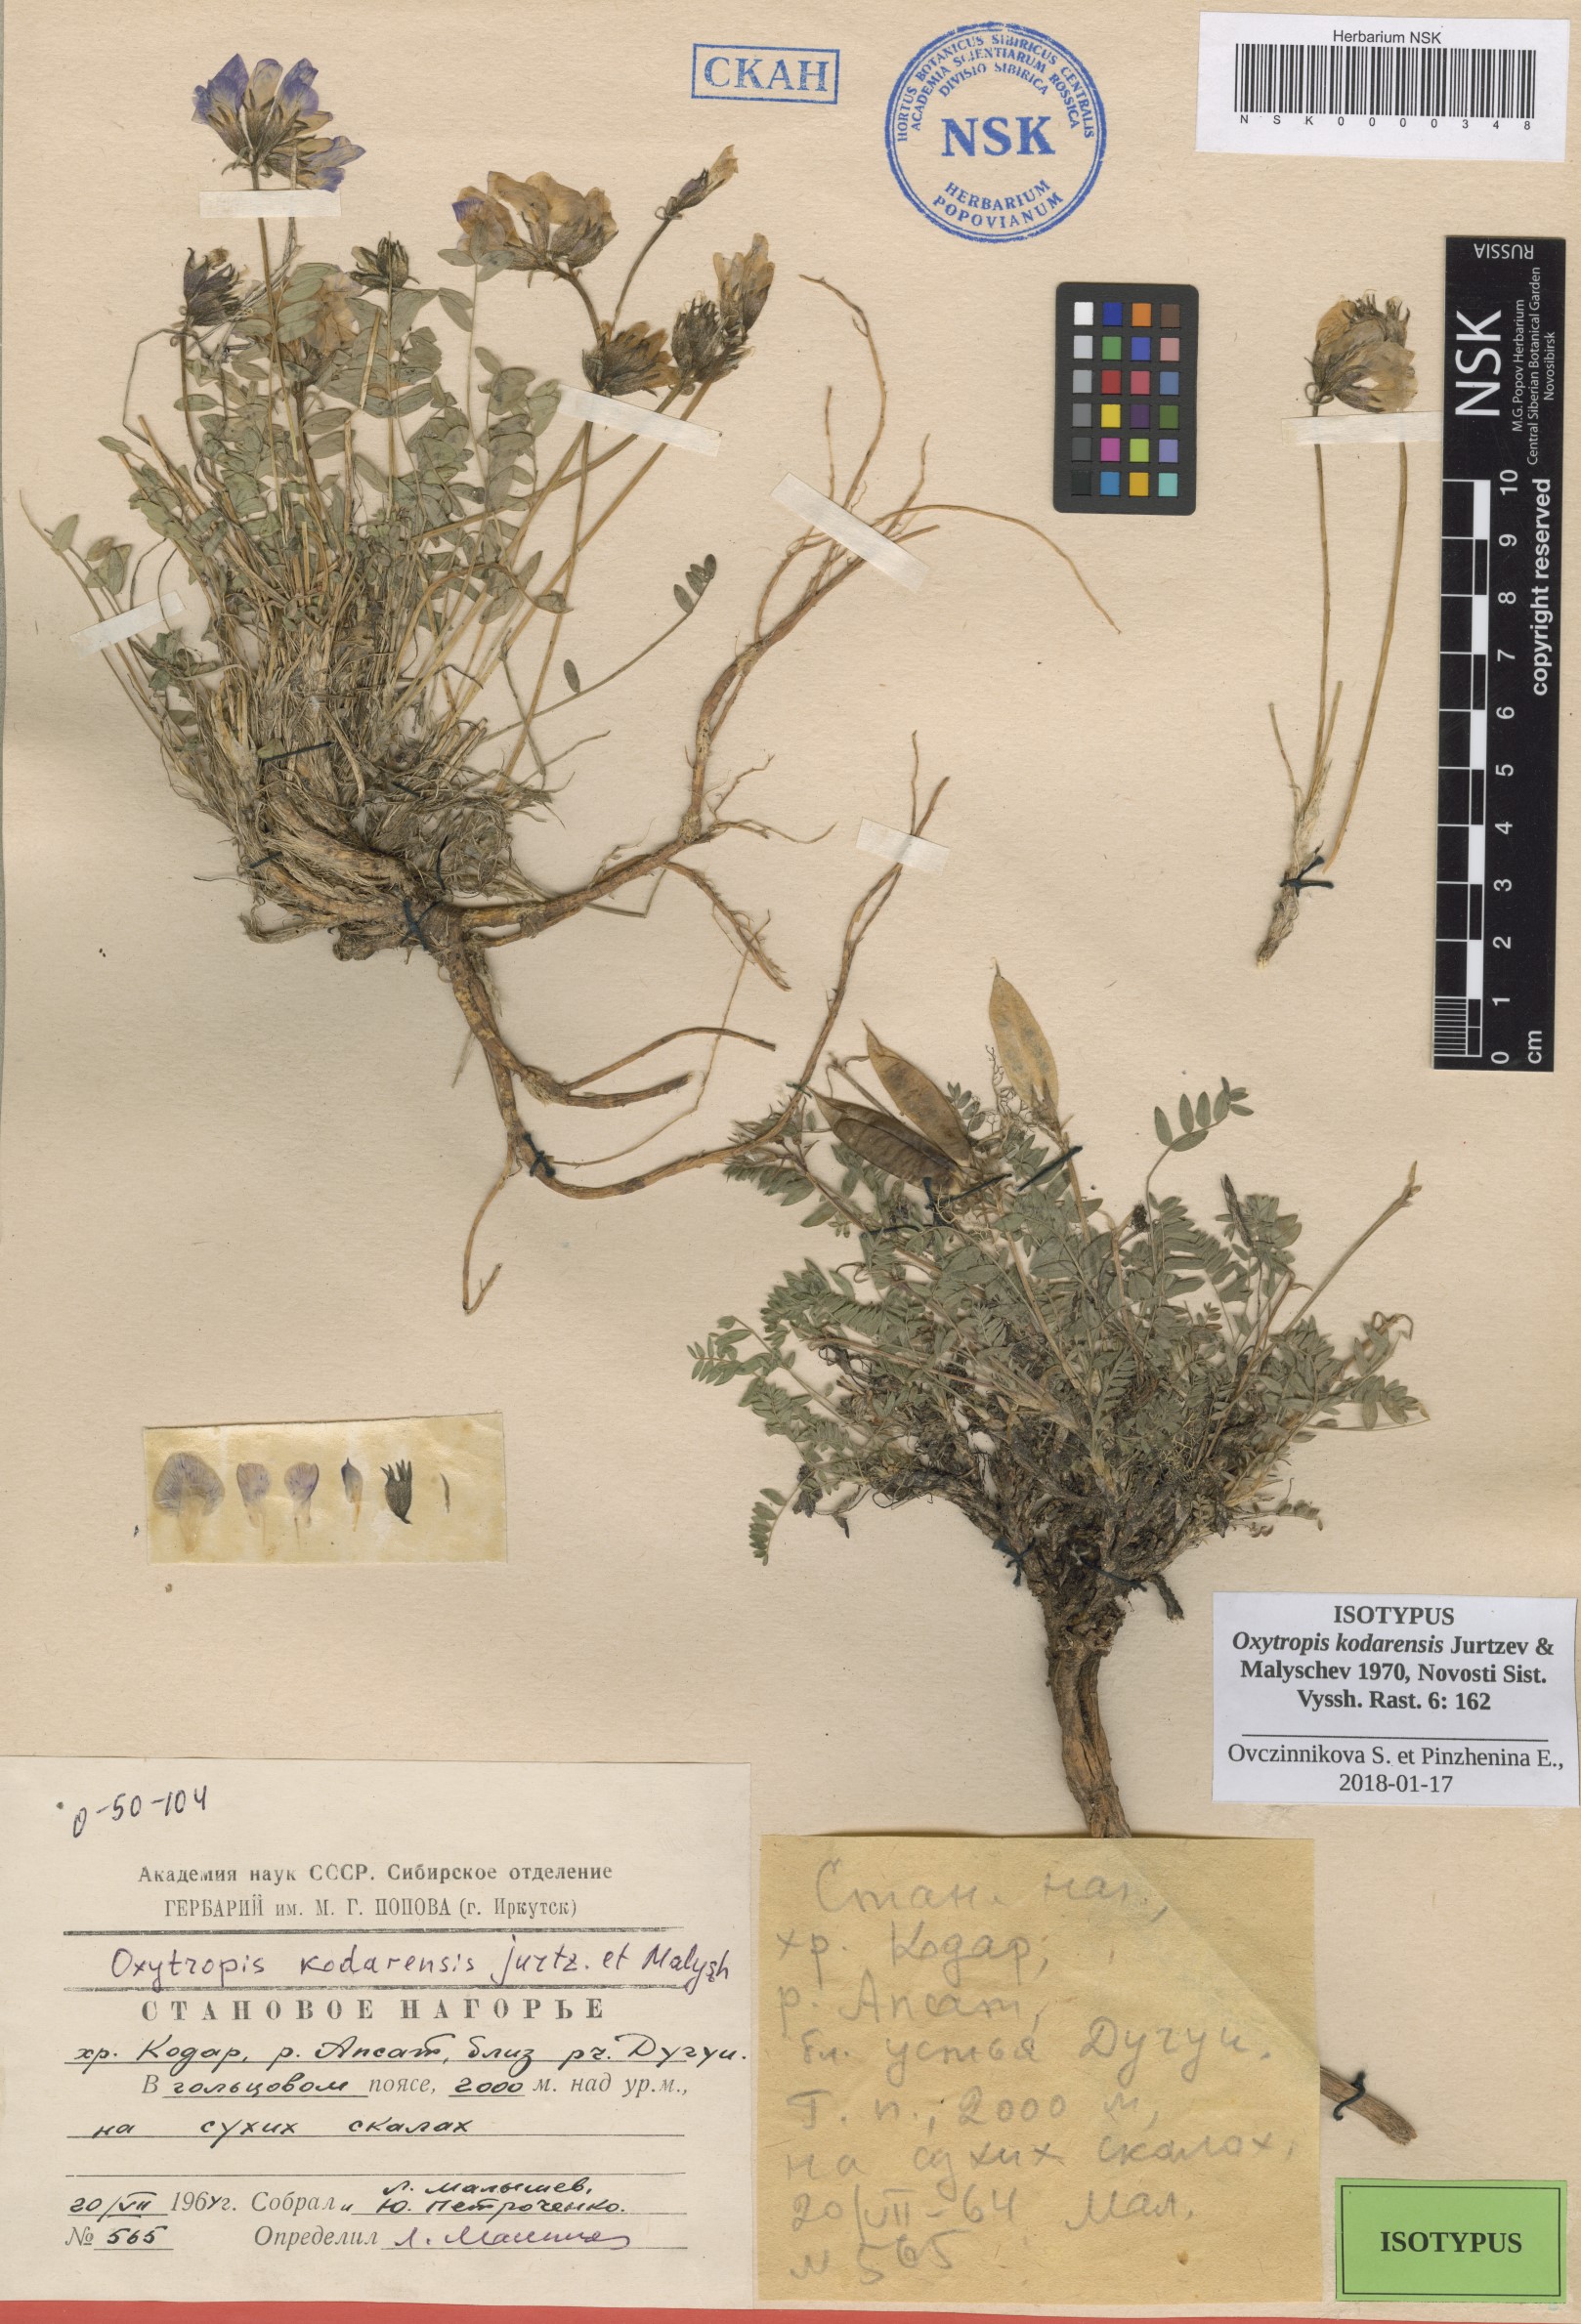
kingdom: Plantae
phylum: Tracheophyta
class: Magnoliopsida
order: Fabales
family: Fabaceae
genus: Oxytropis
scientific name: Oxytropis kodarensis
